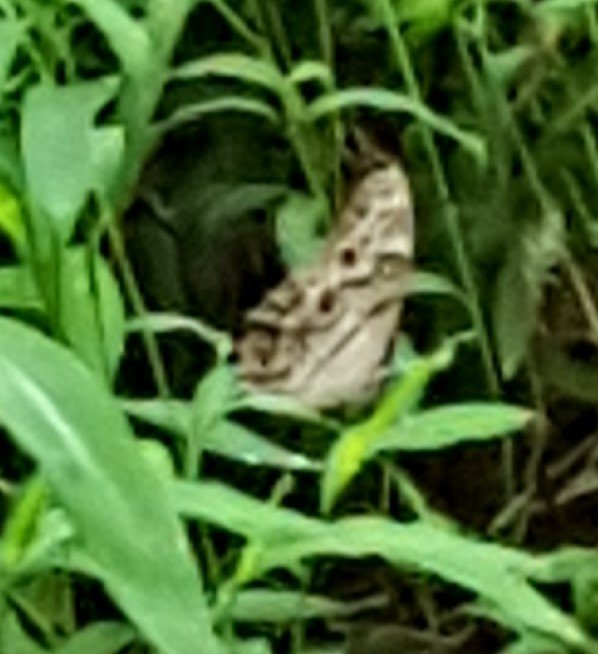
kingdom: Animalia
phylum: Arthropoda
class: Insecta
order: Lepidoptera
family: Nymphalidae
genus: Lethe
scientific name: Lethe anthedon
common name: Northern Pearly-Eye
